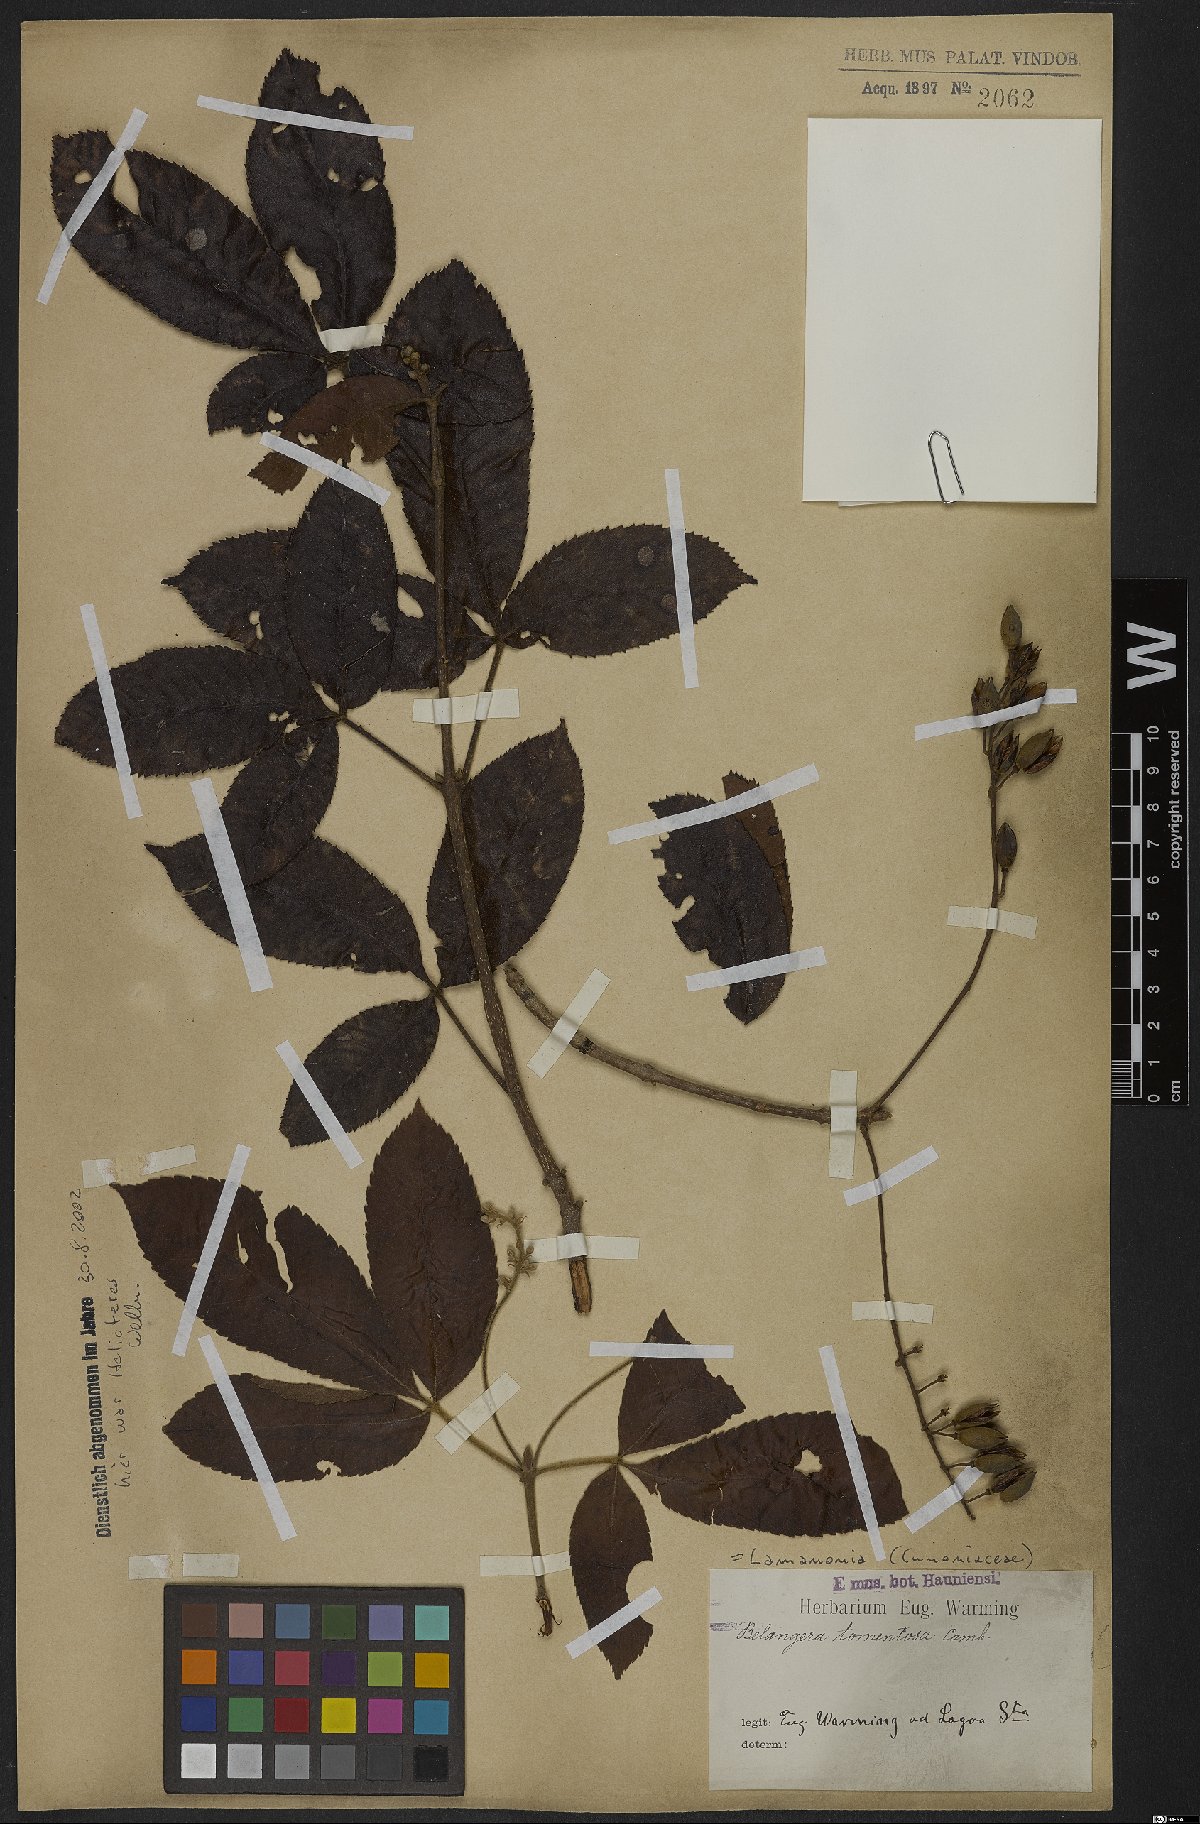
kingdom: Plantae
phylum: Tracheophyta
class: Magnoliopsida
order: Oxalidales
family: Cunoniaceae
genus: Lamanonia
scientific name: Lamanonia ternata
